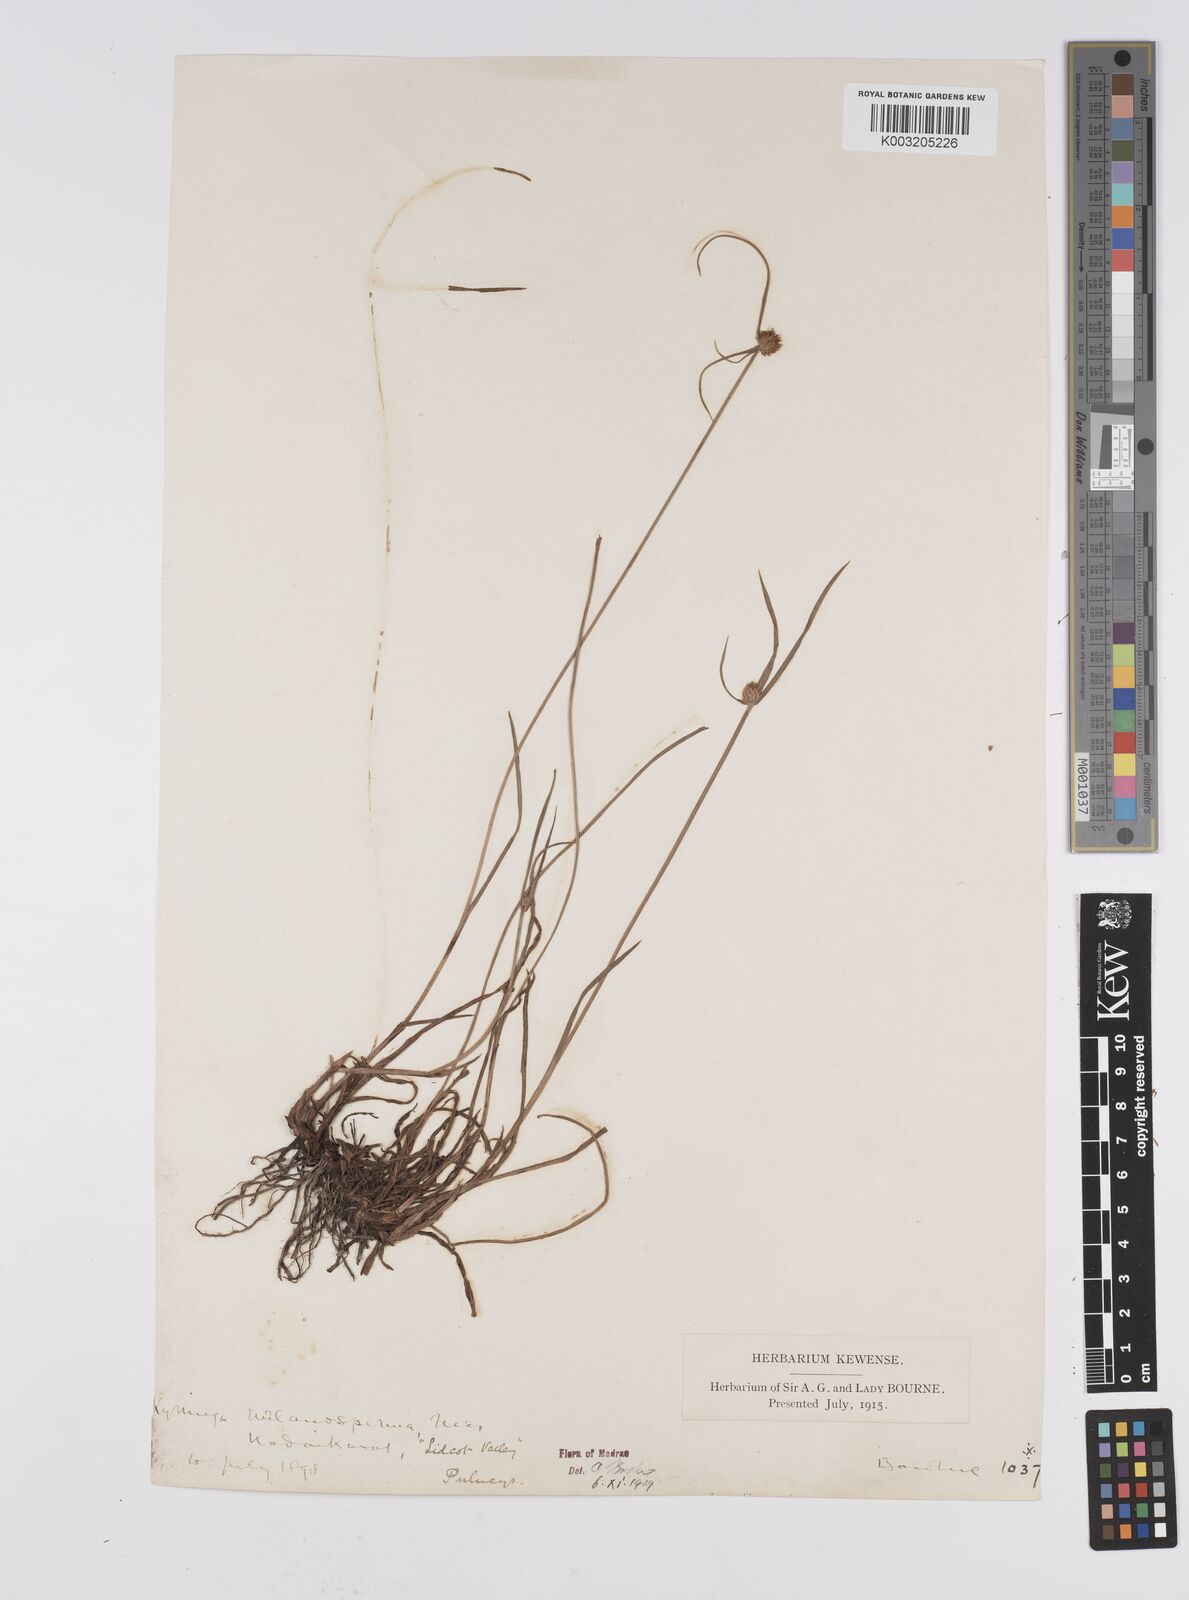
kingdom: Plantae
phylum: Tracheophyta
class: Liliopsida
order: Poales
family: Cyperaceae
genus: Cyperus
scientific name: Cyperus melanospermus
